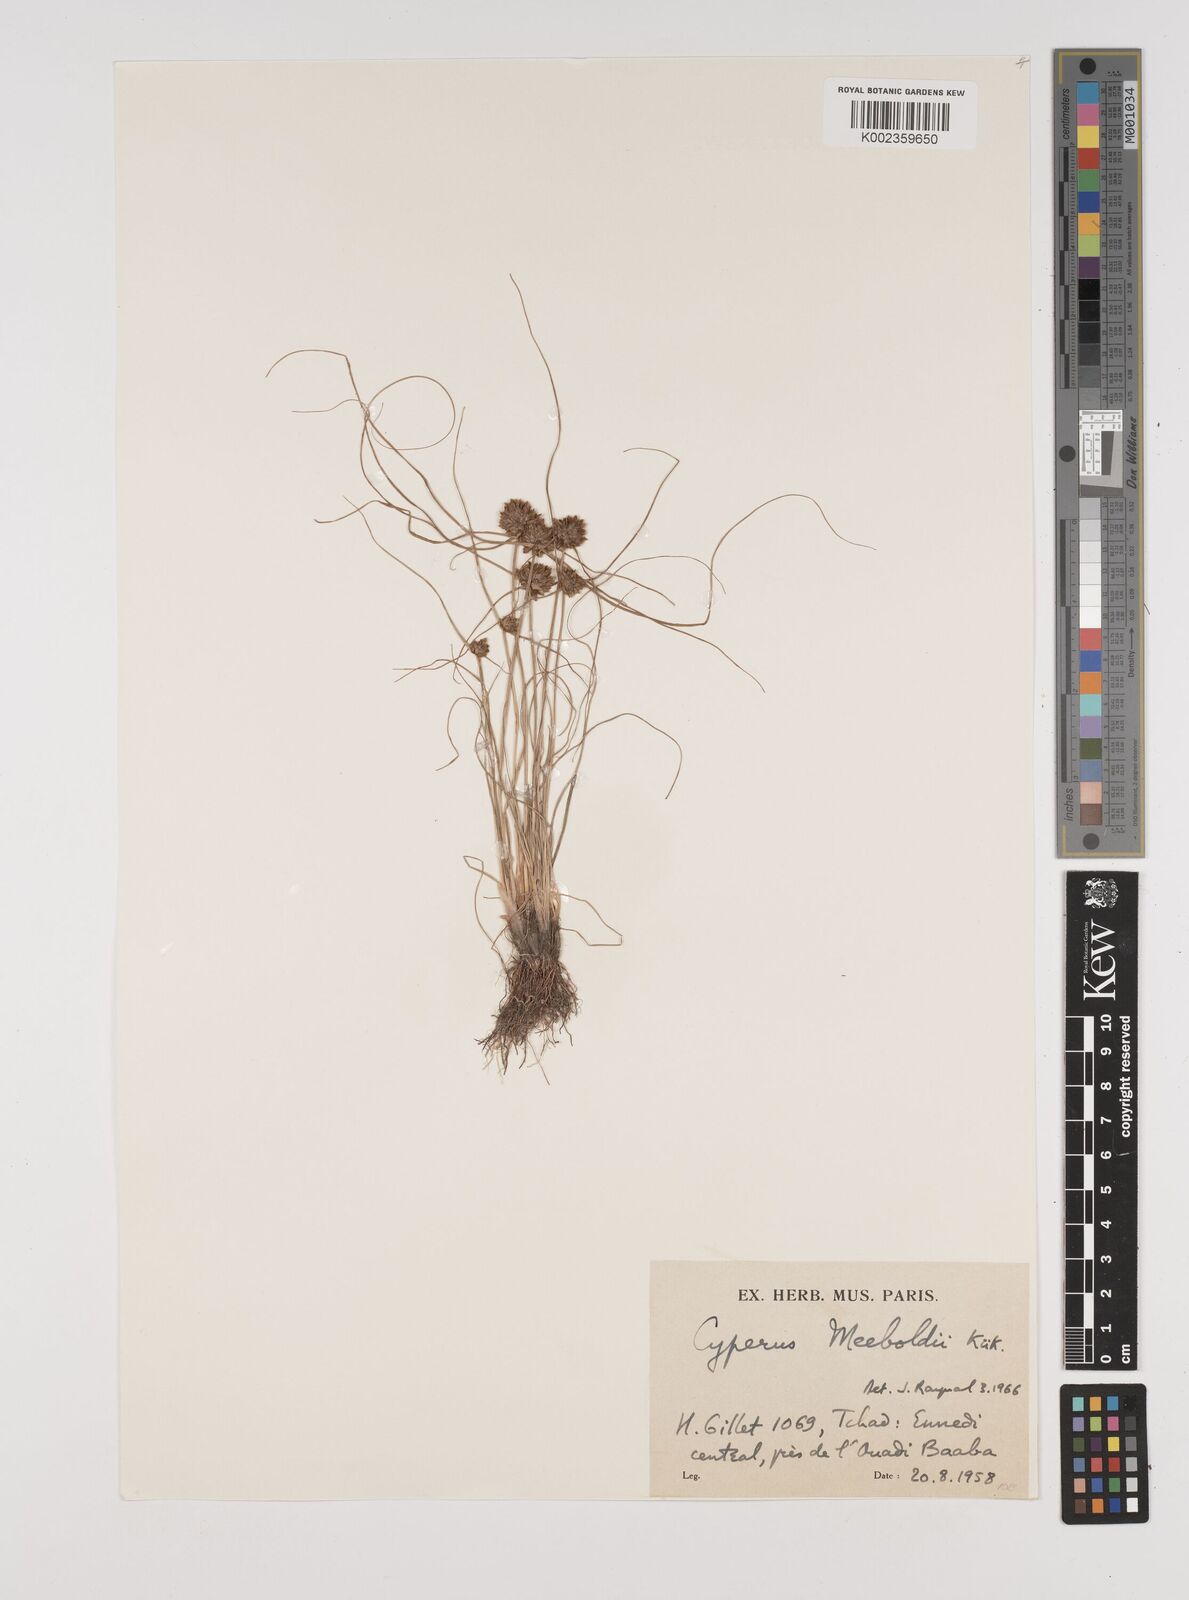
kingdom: Plantae
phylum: Tracheophyta
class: Liliopsida
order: Poales
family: Cyperaceae
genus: Cyperus
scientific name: Cyperus meeboldii
